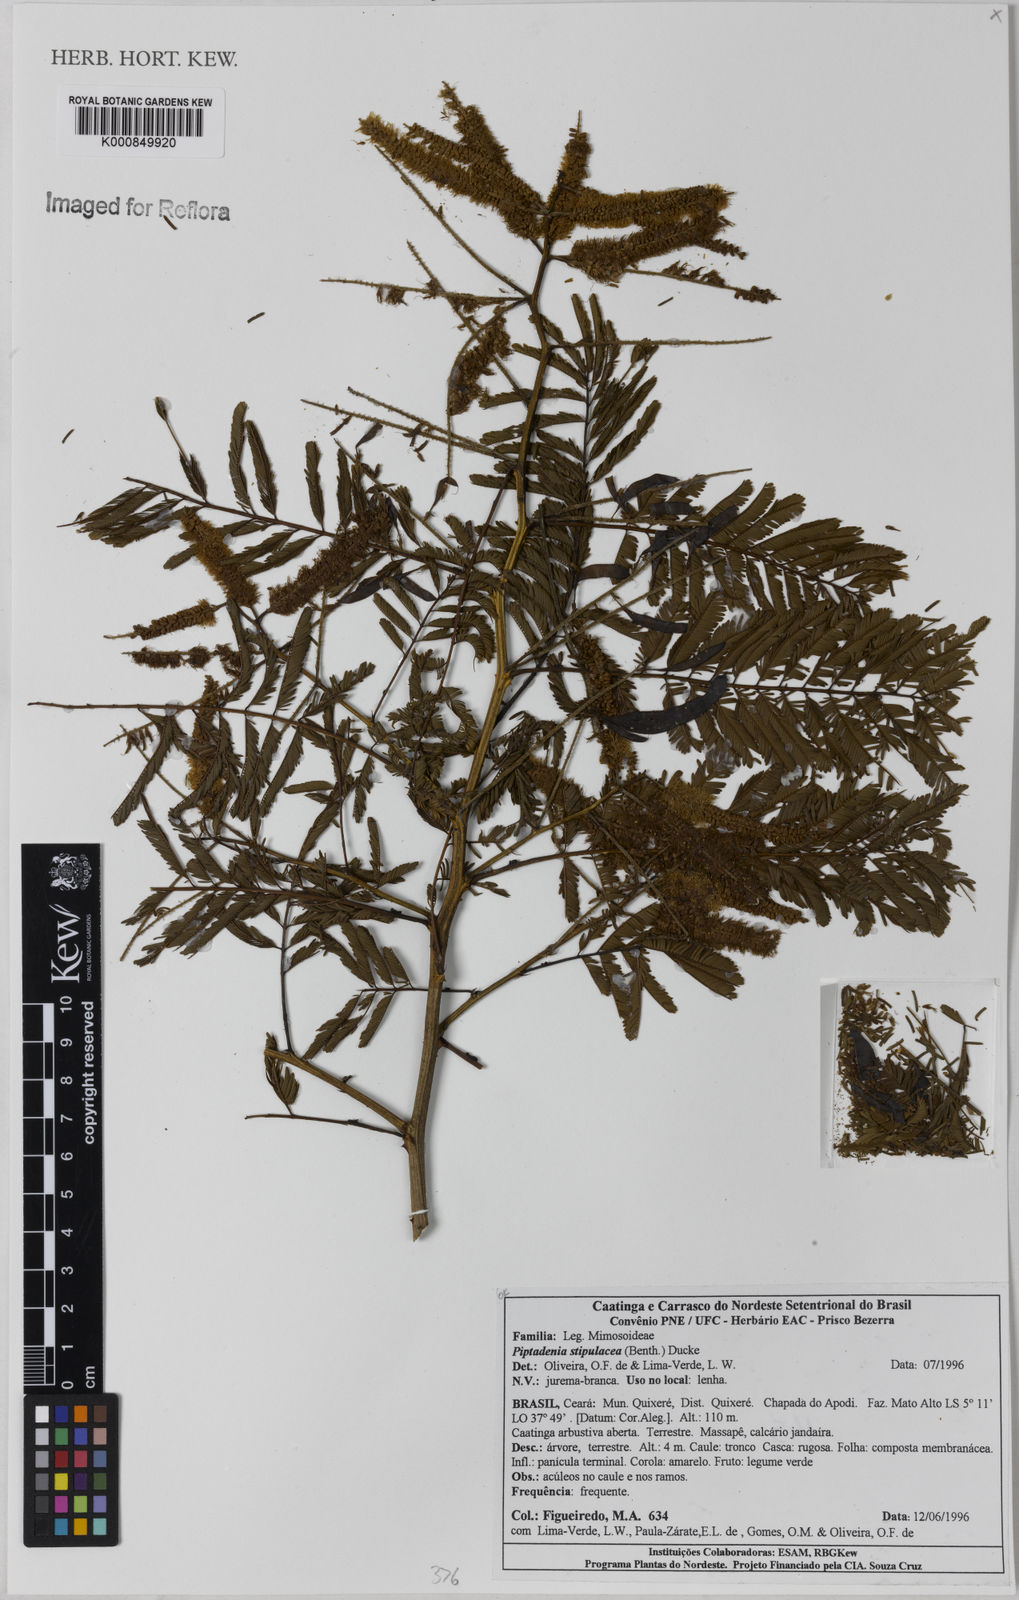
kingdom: Plantae
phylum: Tracheophyta
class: Magnoliopsida
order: Fabales
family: Fabaceae
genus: Piptadenia
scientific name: Piptadenia retusa
